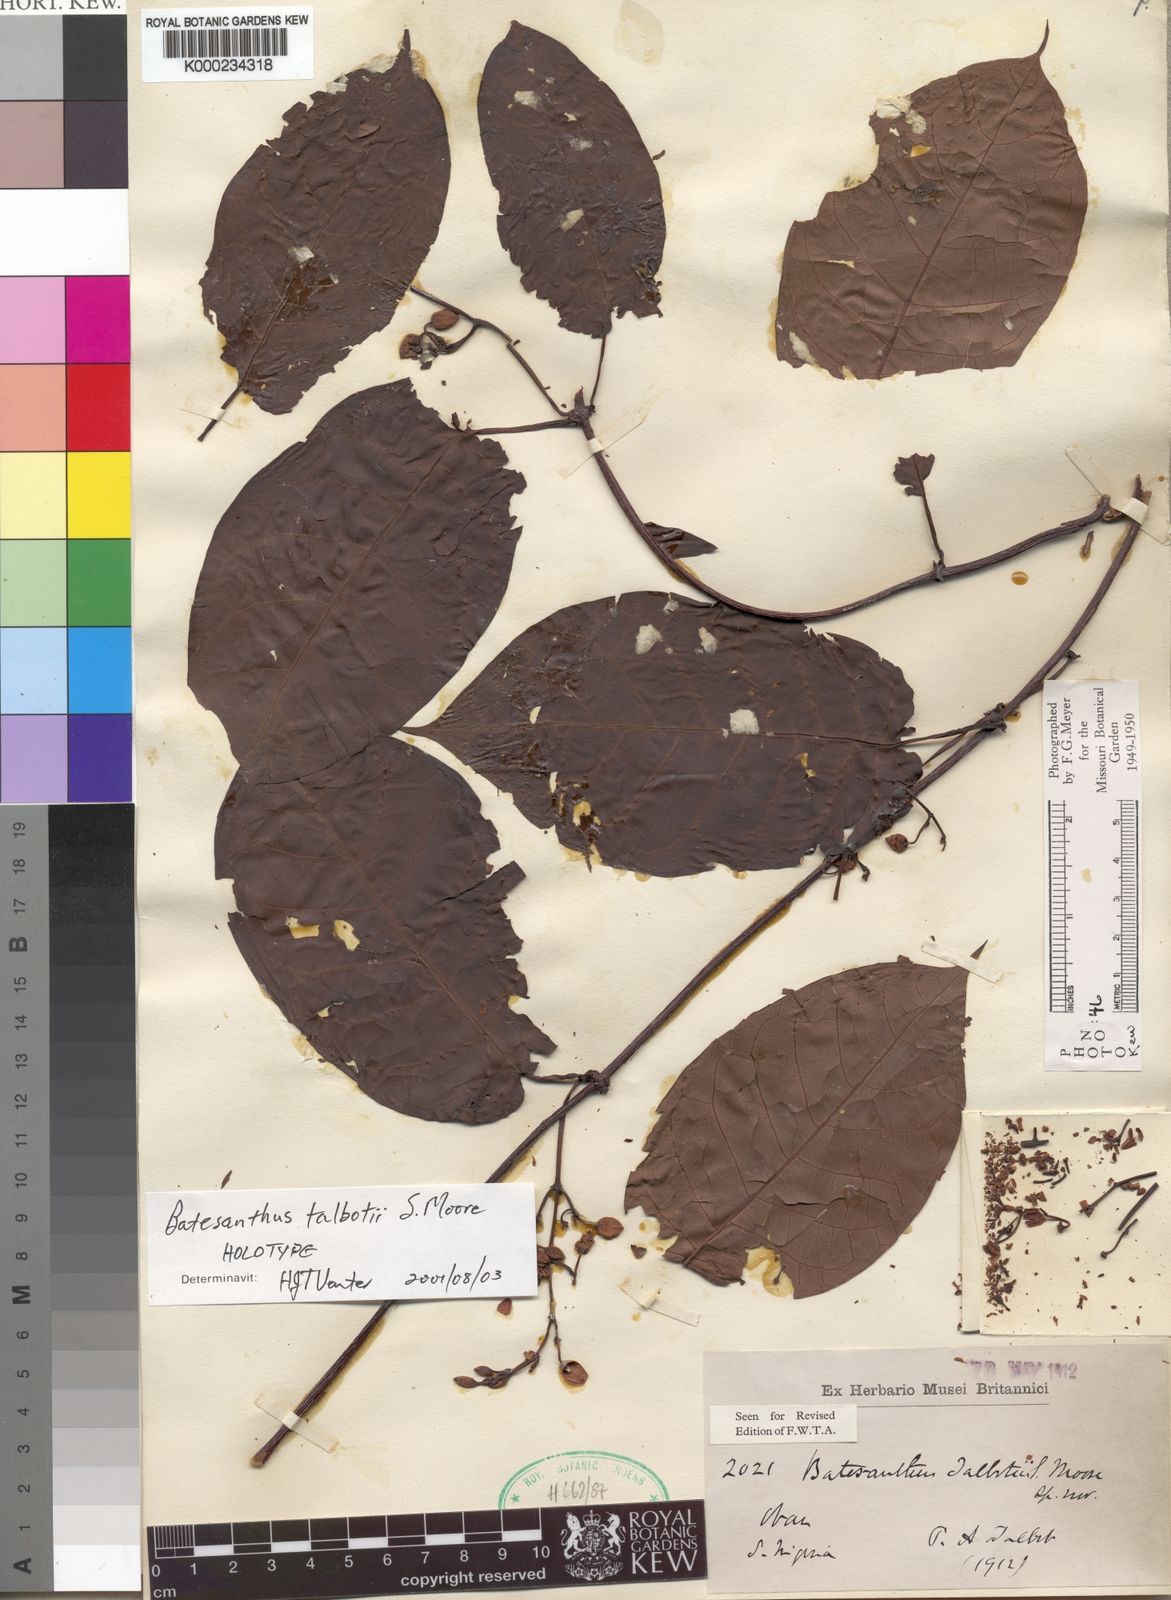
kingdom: Plantae
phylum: Tracheophyta
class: Magnoliopsida
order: Gentianales
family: Apocynaceae
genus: Batesanthus
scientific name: Batesanthus purpureus
